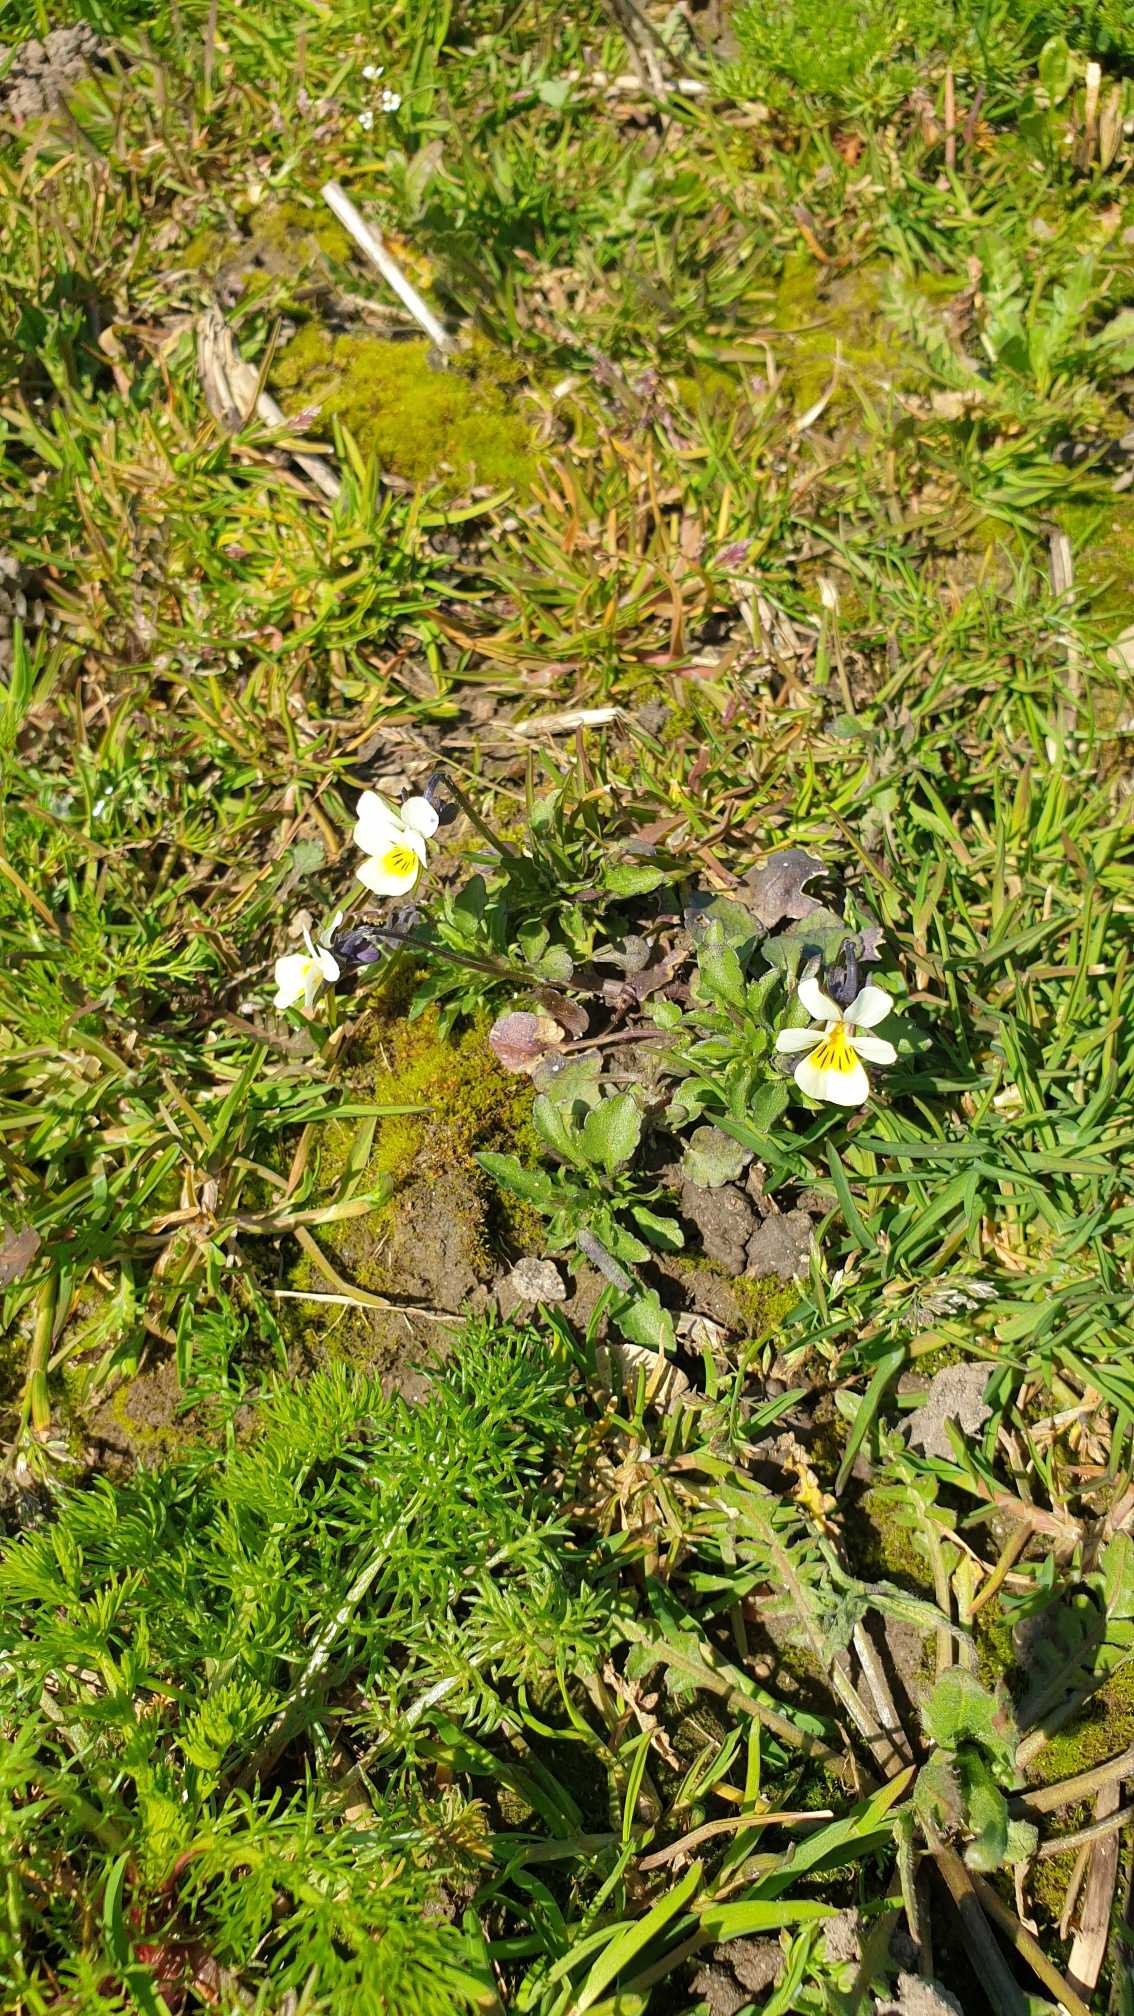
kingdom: Plantae
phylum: Tracheophyta
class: Magnoliopsida
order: Malpighiales
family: Violaceae
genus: Viola
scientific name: Viola arvensis
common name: Ager-stedmoderblomst
